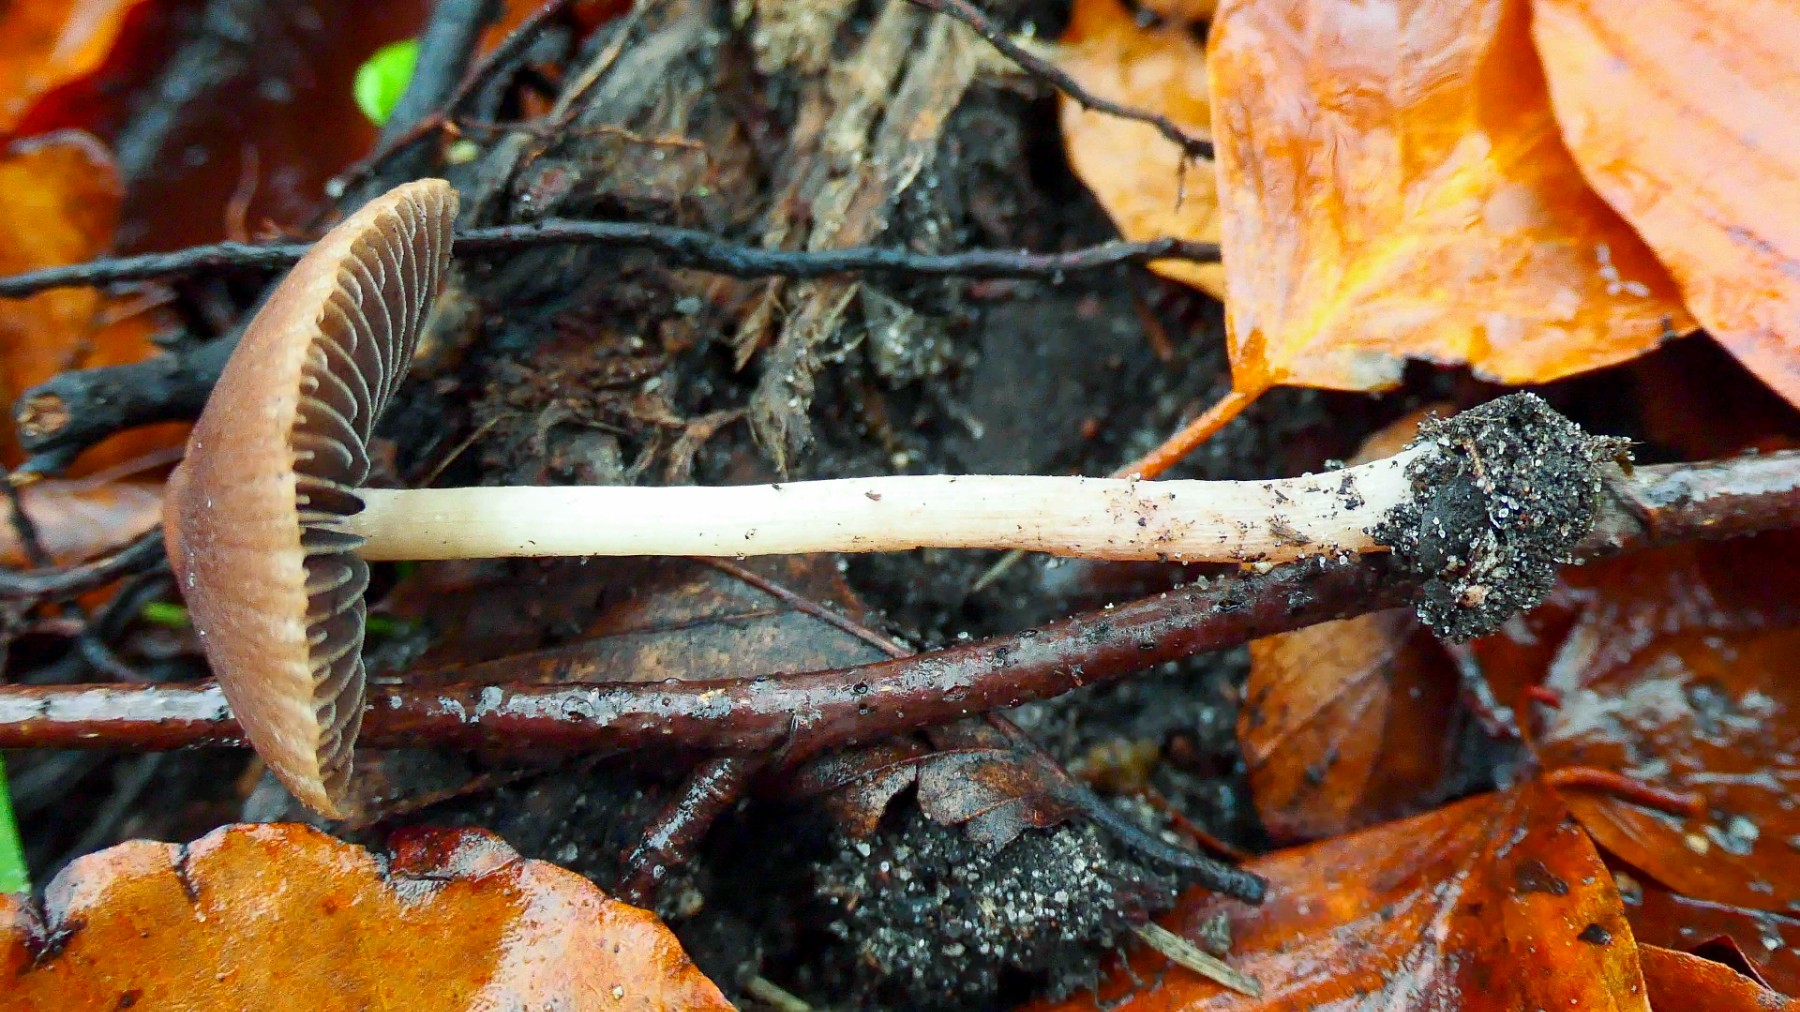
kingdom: Fungi
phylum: Basidiomycota
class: Agaricomycetes
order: Agaricales
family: Psathyrellaceae
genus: Psathyrella
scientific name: Psathyrella bipellis
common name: vinrød mørkhat
